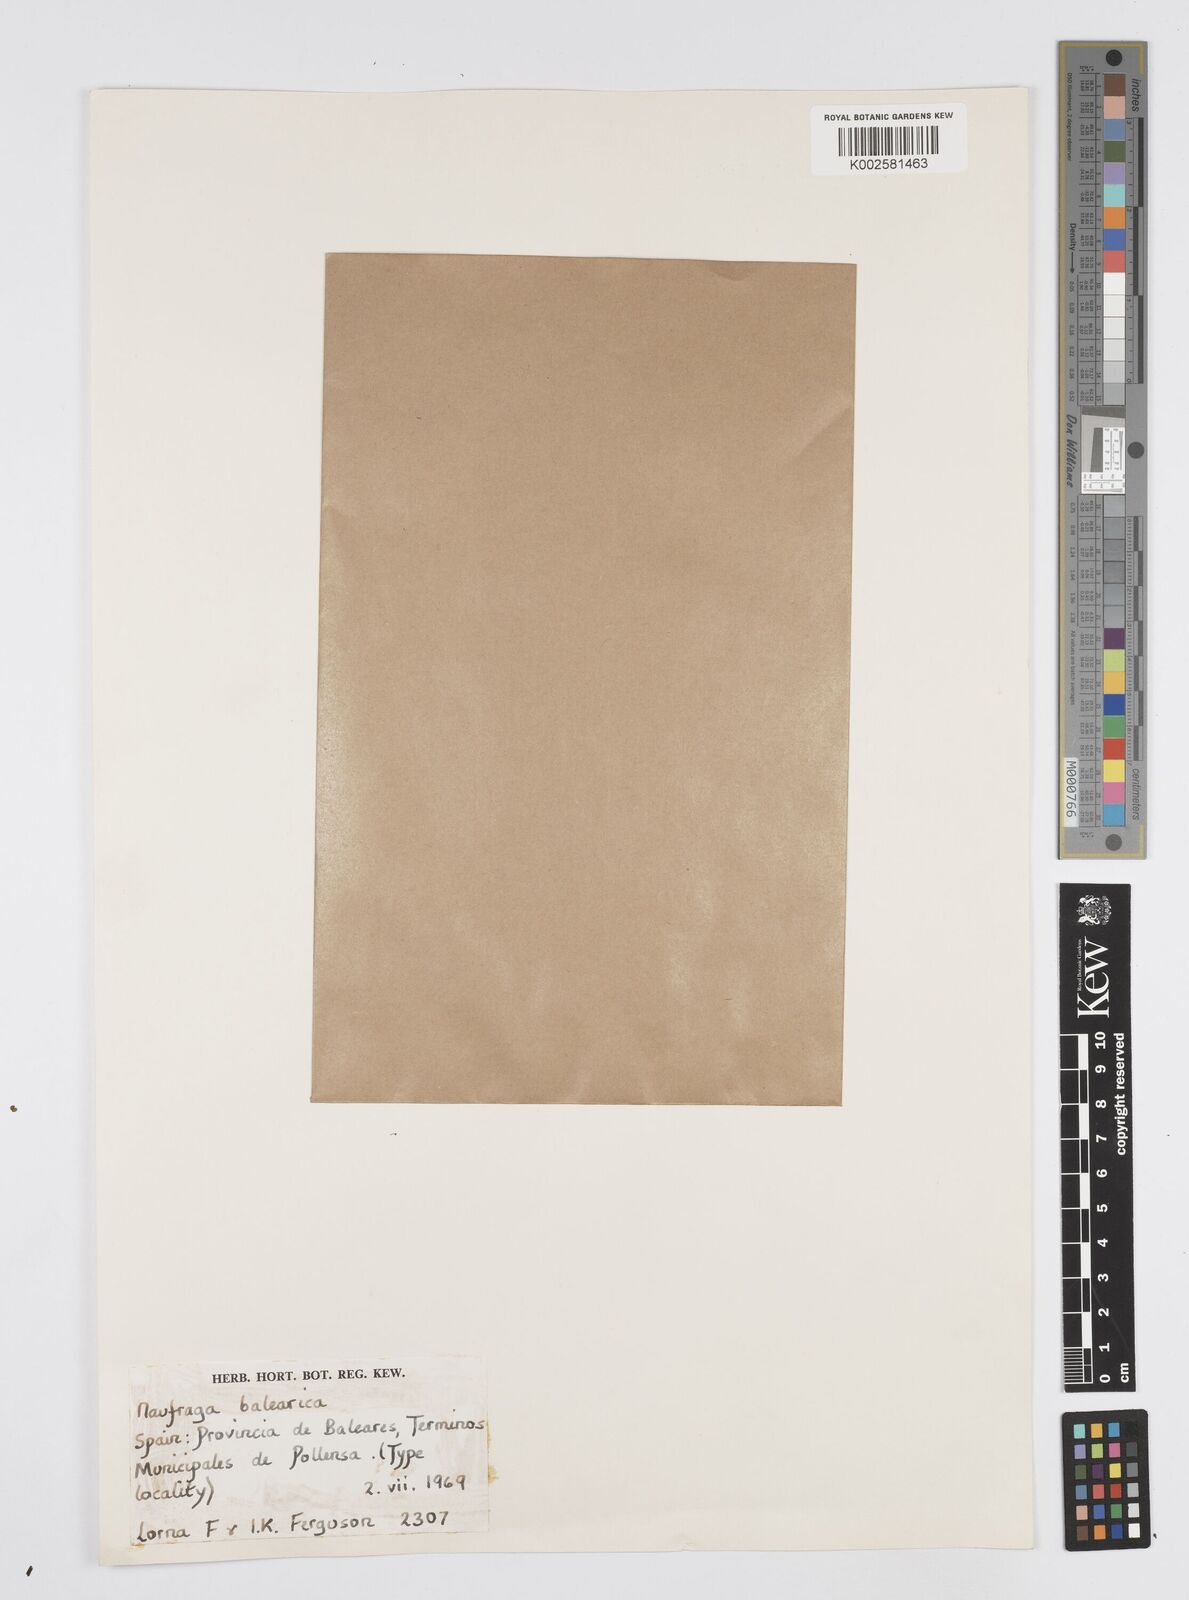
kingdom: Plantae
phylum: Tracheophyta
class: Magnoliopsida
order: Apiales
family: Apiaceae
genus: Centella
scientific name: Centella
